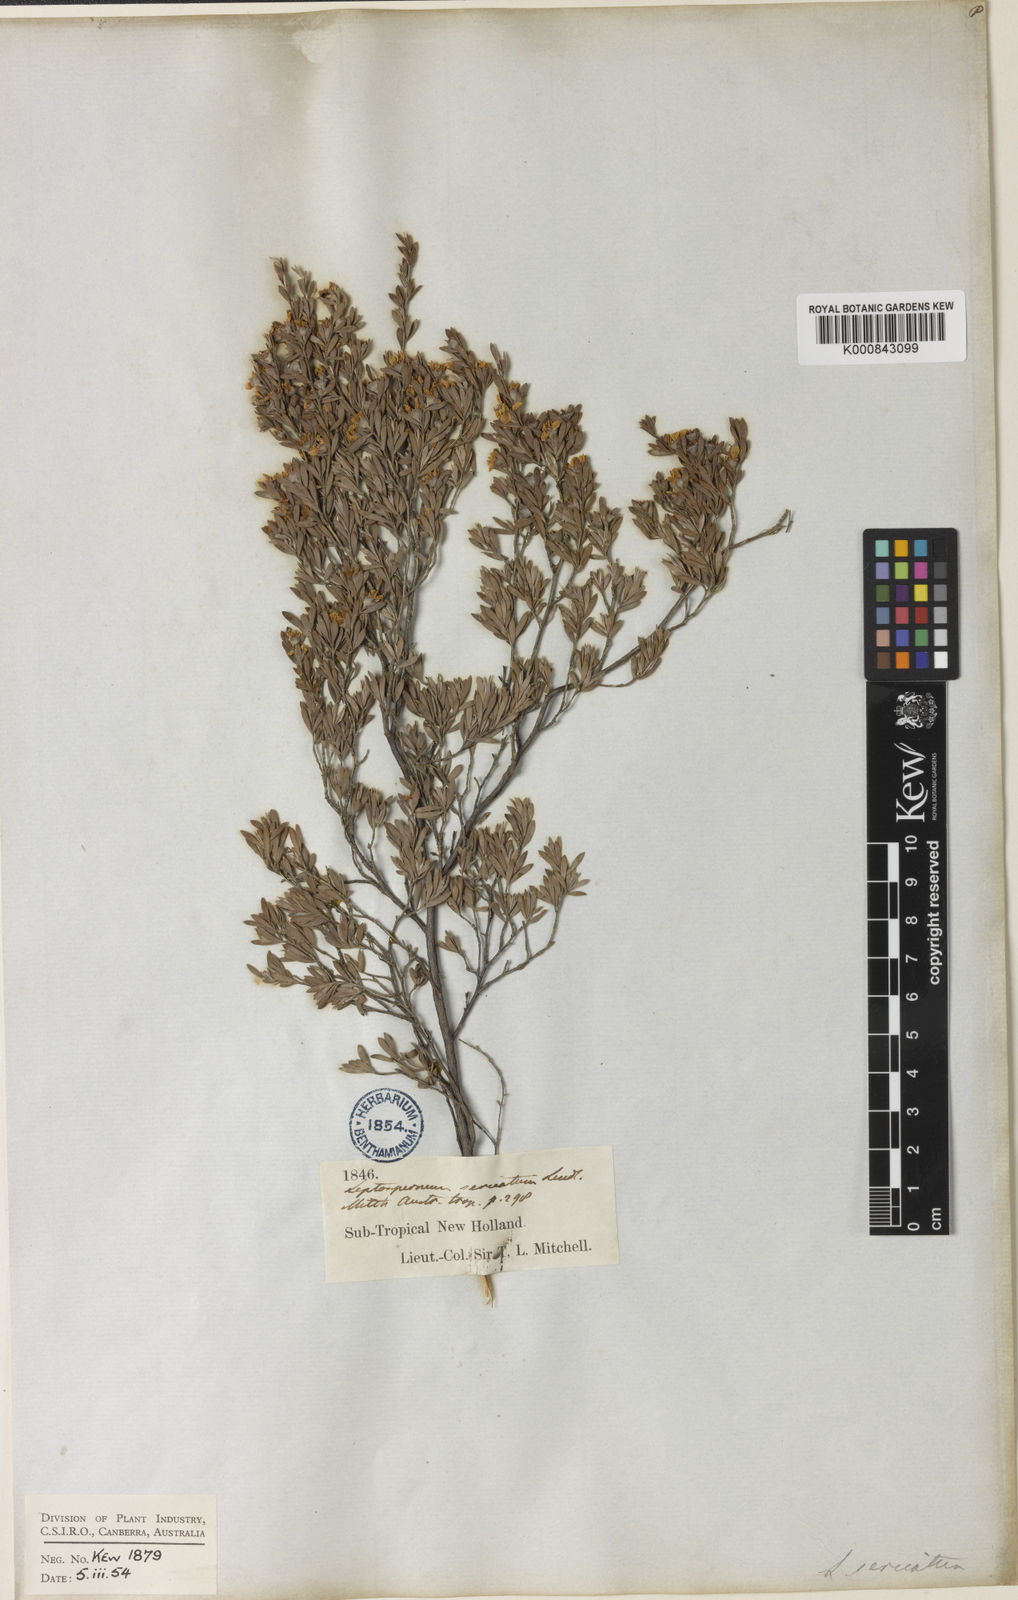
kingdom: Plantae
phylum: Tracheophyta
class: Magnoliopsida
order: Myrtales
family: Myrtaceae
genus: Leptospermum
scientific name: Leptospermum sericatum
